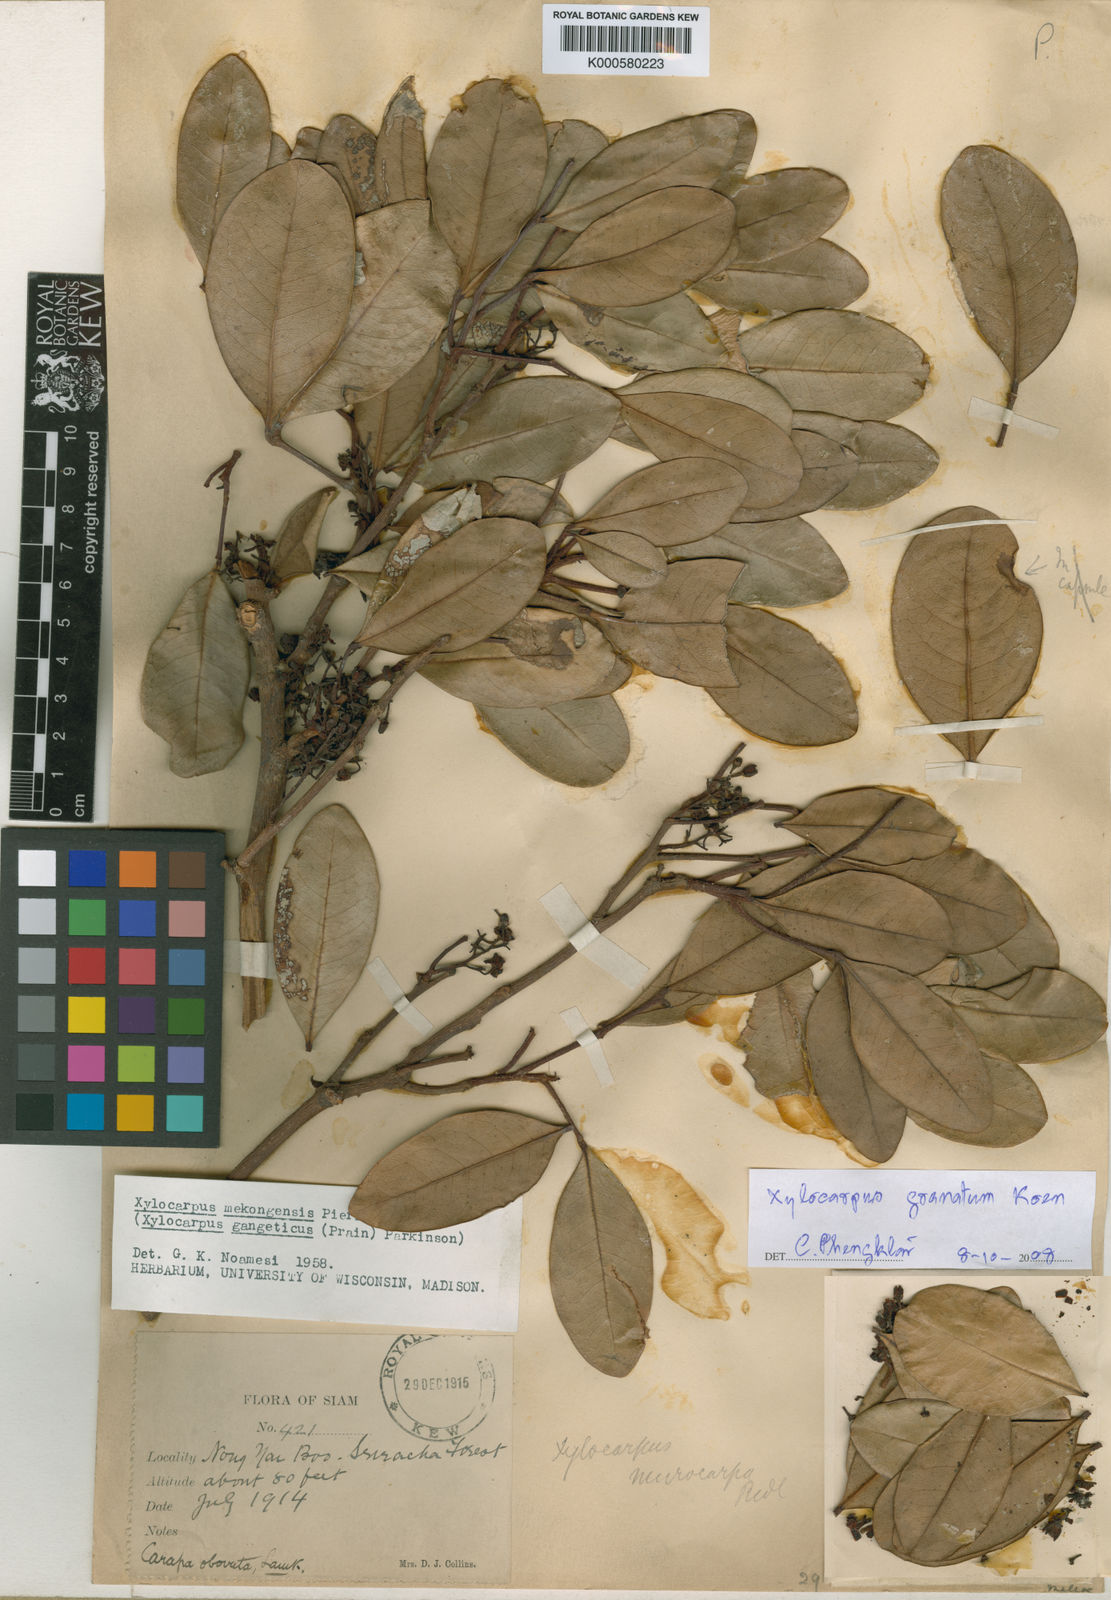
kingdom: Plantae
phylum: Tracheophyta
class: Magnoliopsida
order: Sapindales
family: Meliaceae
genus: Xylocarpus
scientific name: Xylocarpus granatum
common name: Apple mangrove
